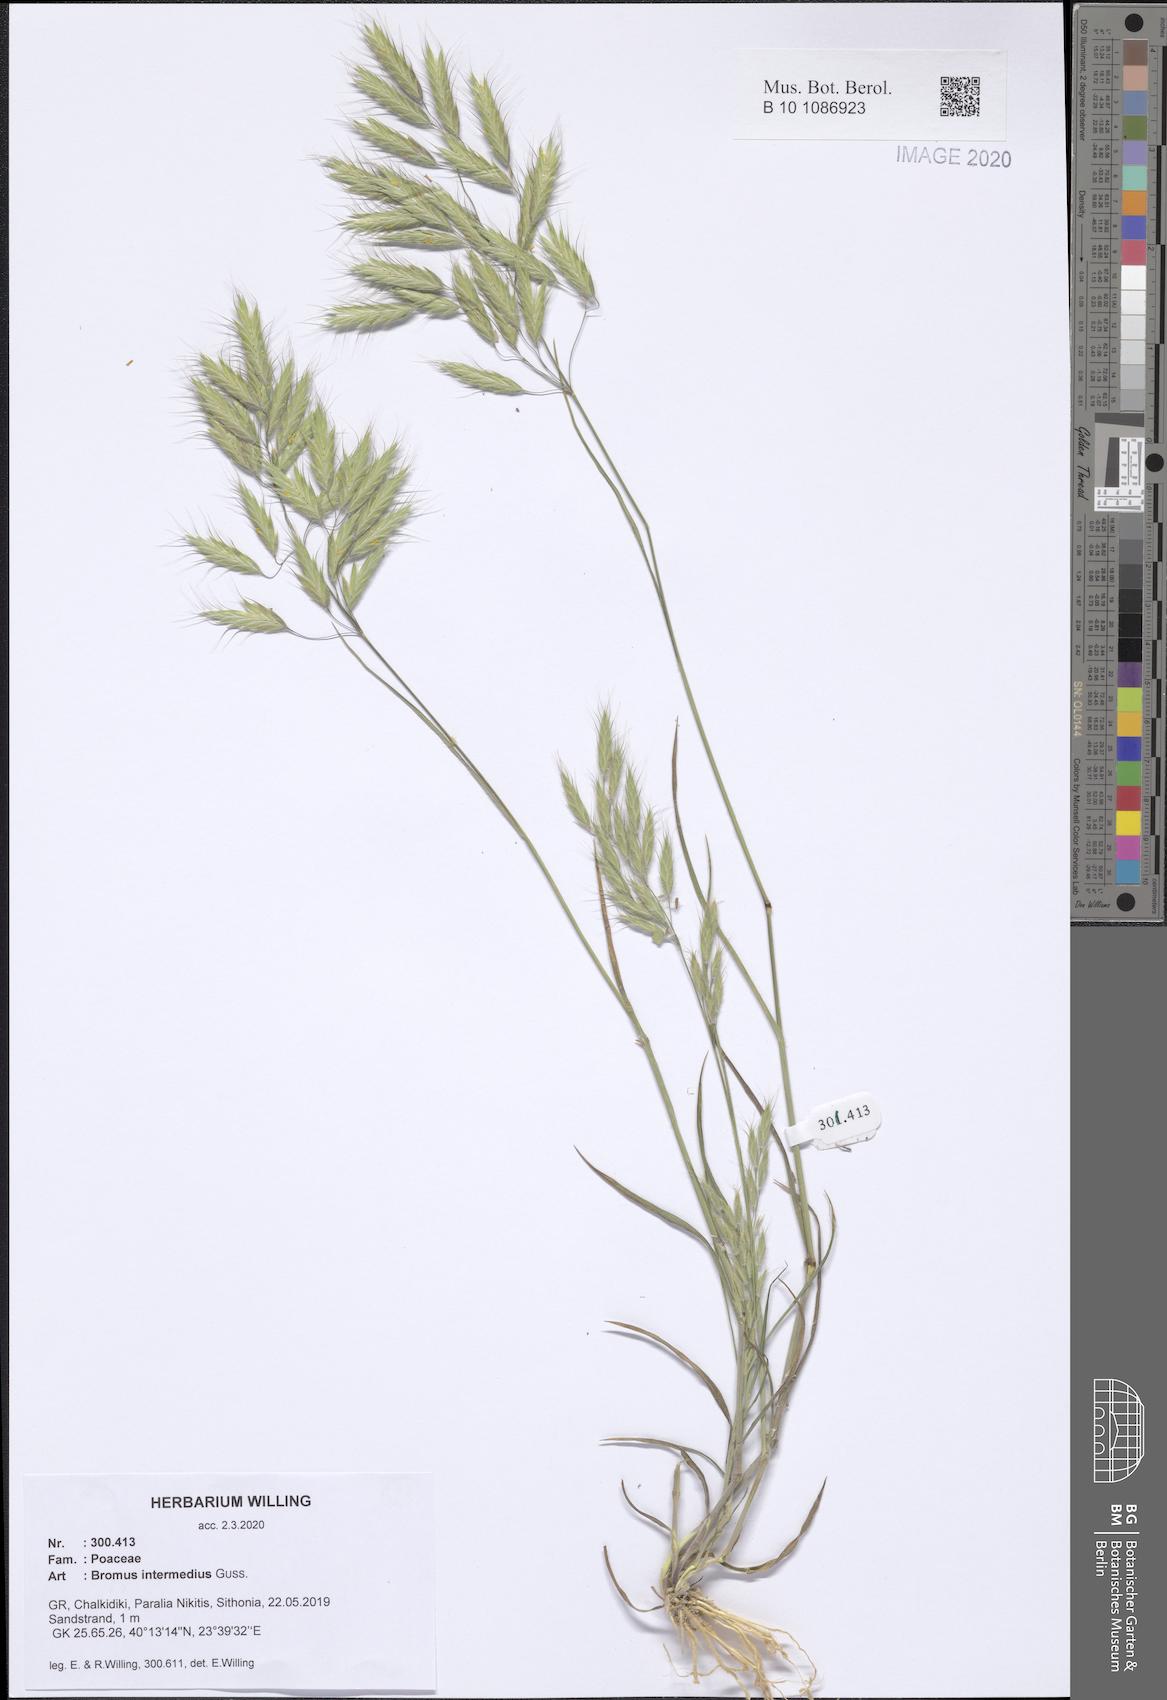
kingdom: Plantae
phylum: Tracheophyta
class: Liliopsida
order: Poales
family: Poaceae
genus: Bromus
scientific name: Bromus intermedius
